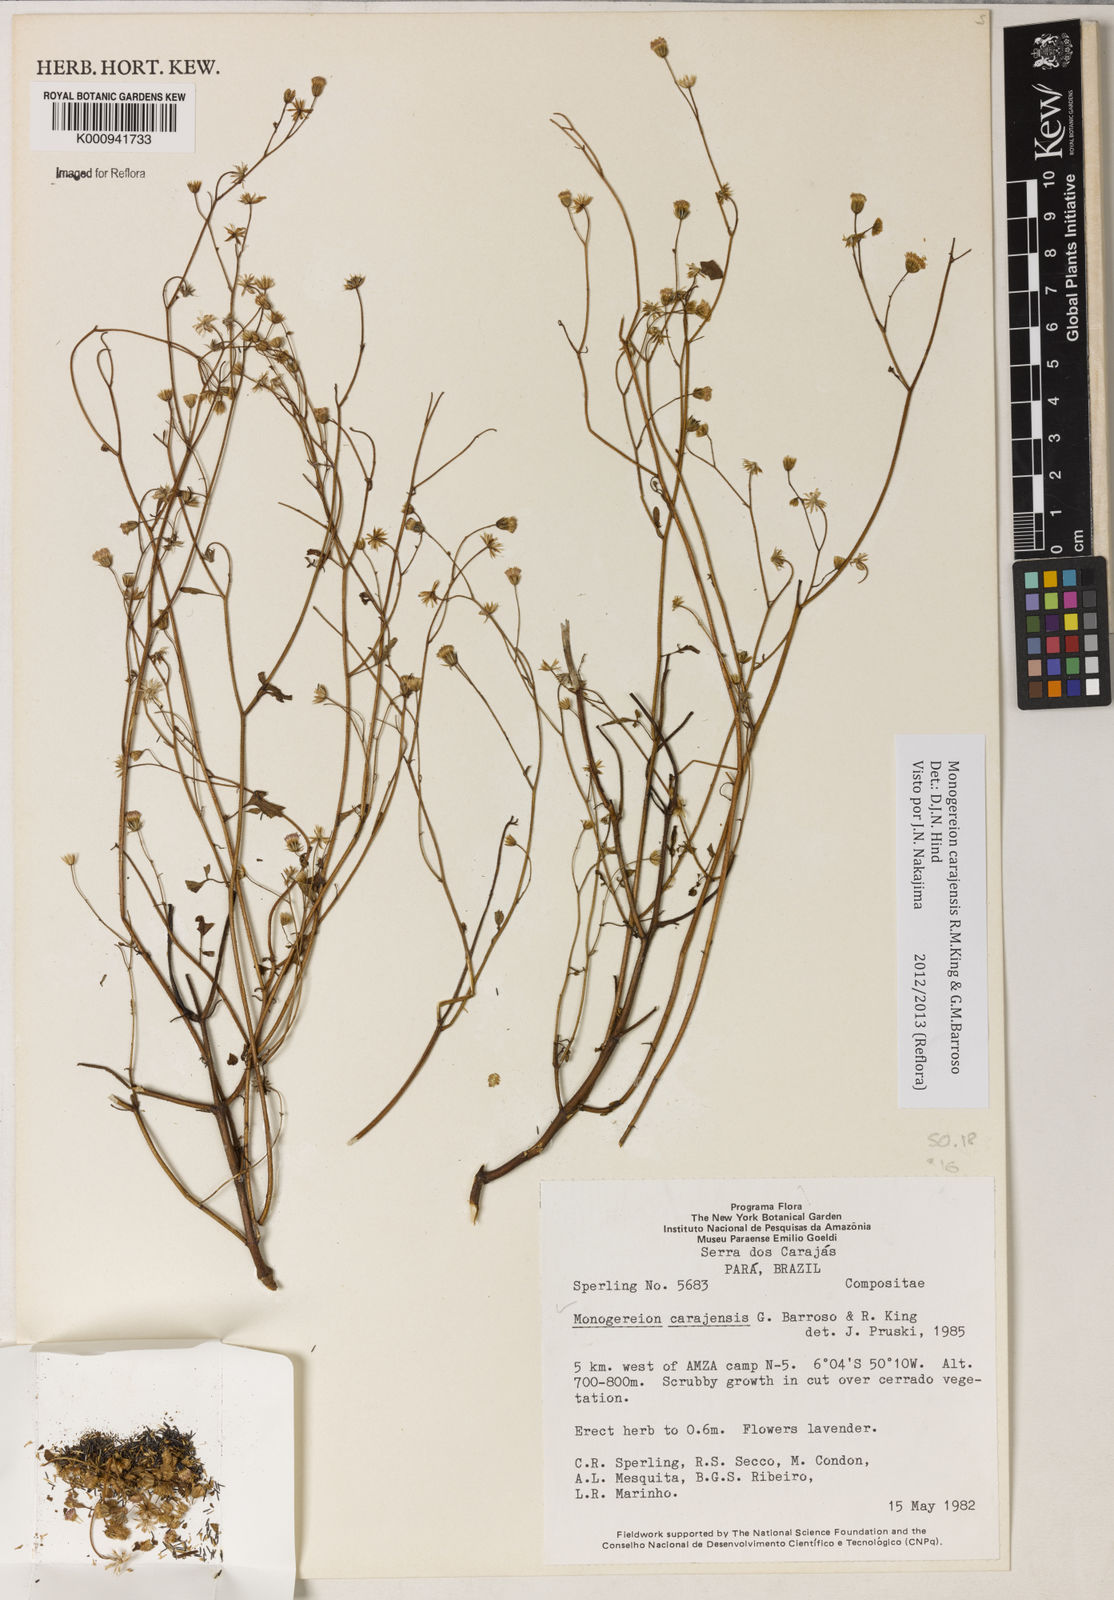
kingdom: Plantae
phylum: Tracheophyta
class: Magnoliopsida
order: Asterales
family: Asteraceae
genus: Monogereion
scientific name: Monogereion carajensis
